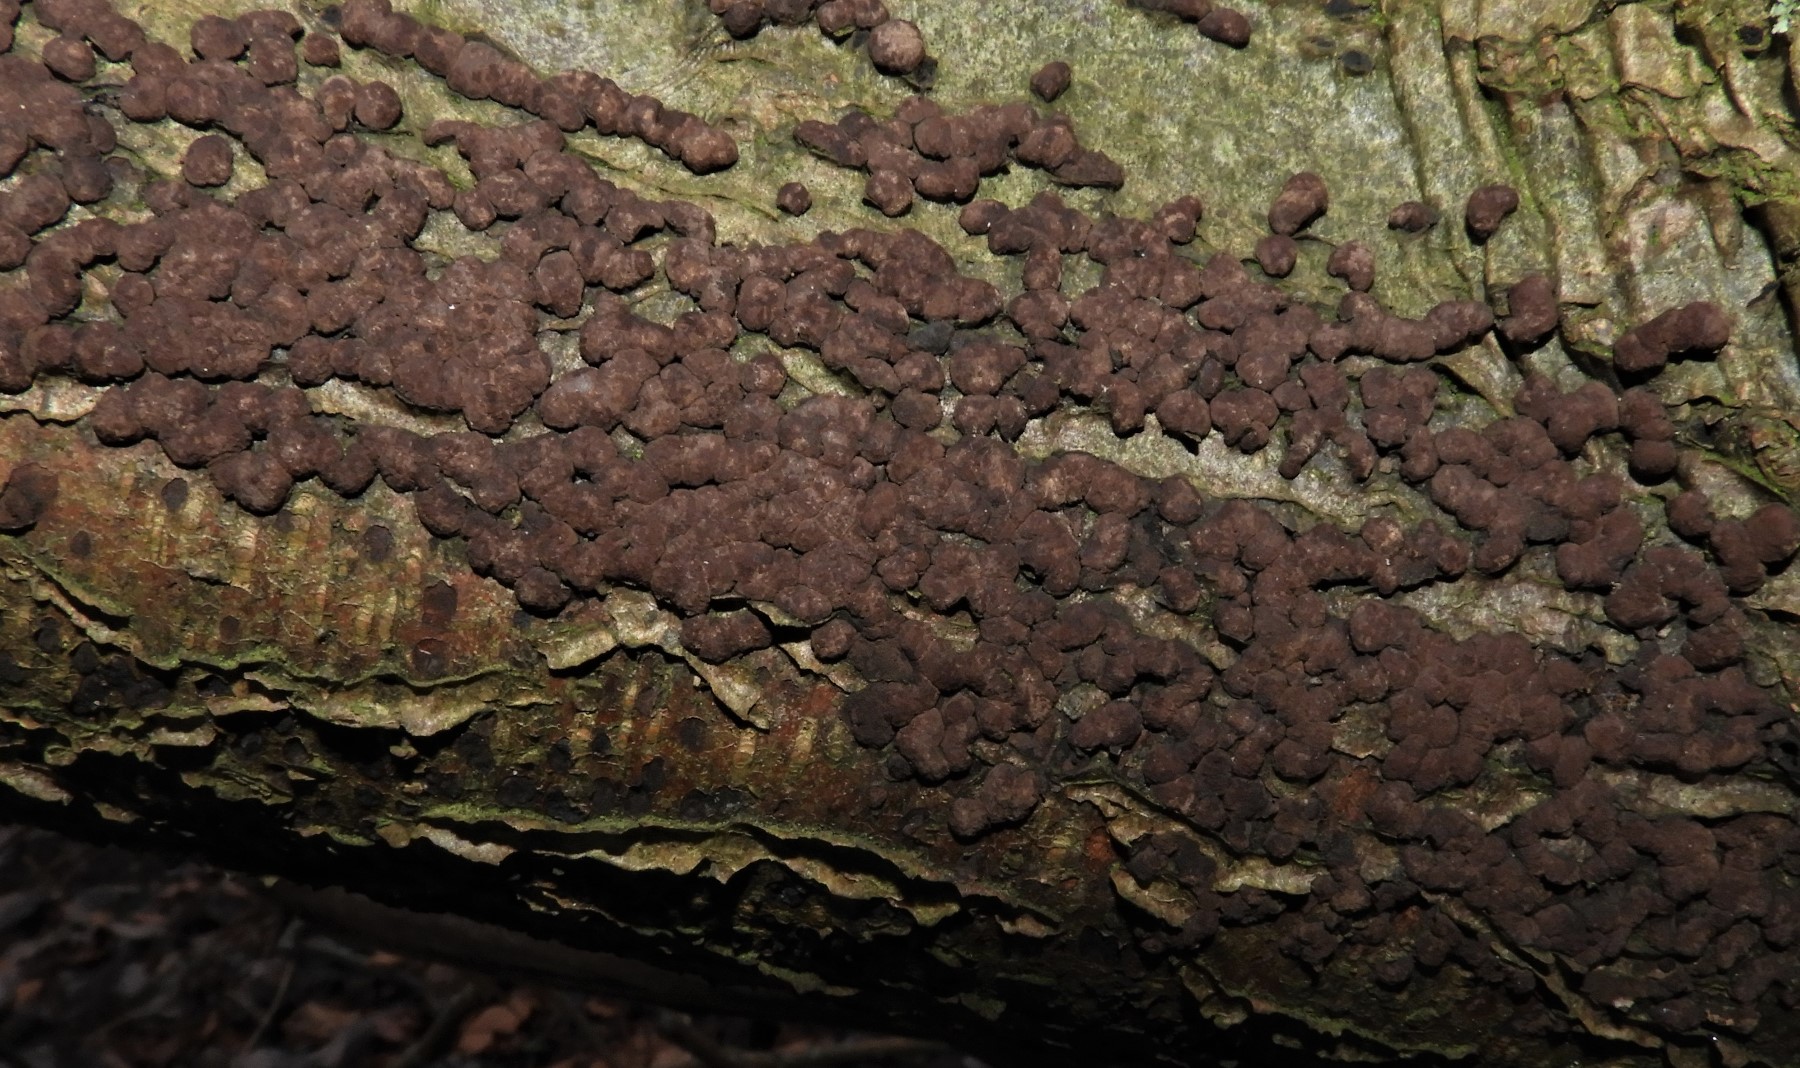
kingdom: Fungi
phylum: Ascomycota
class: Sordariomycetes
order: Xylariales
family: Hypoxylaceae
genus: Hypoxylon
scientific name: Hypoxylon fuscum
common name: kegleformet kulbær
